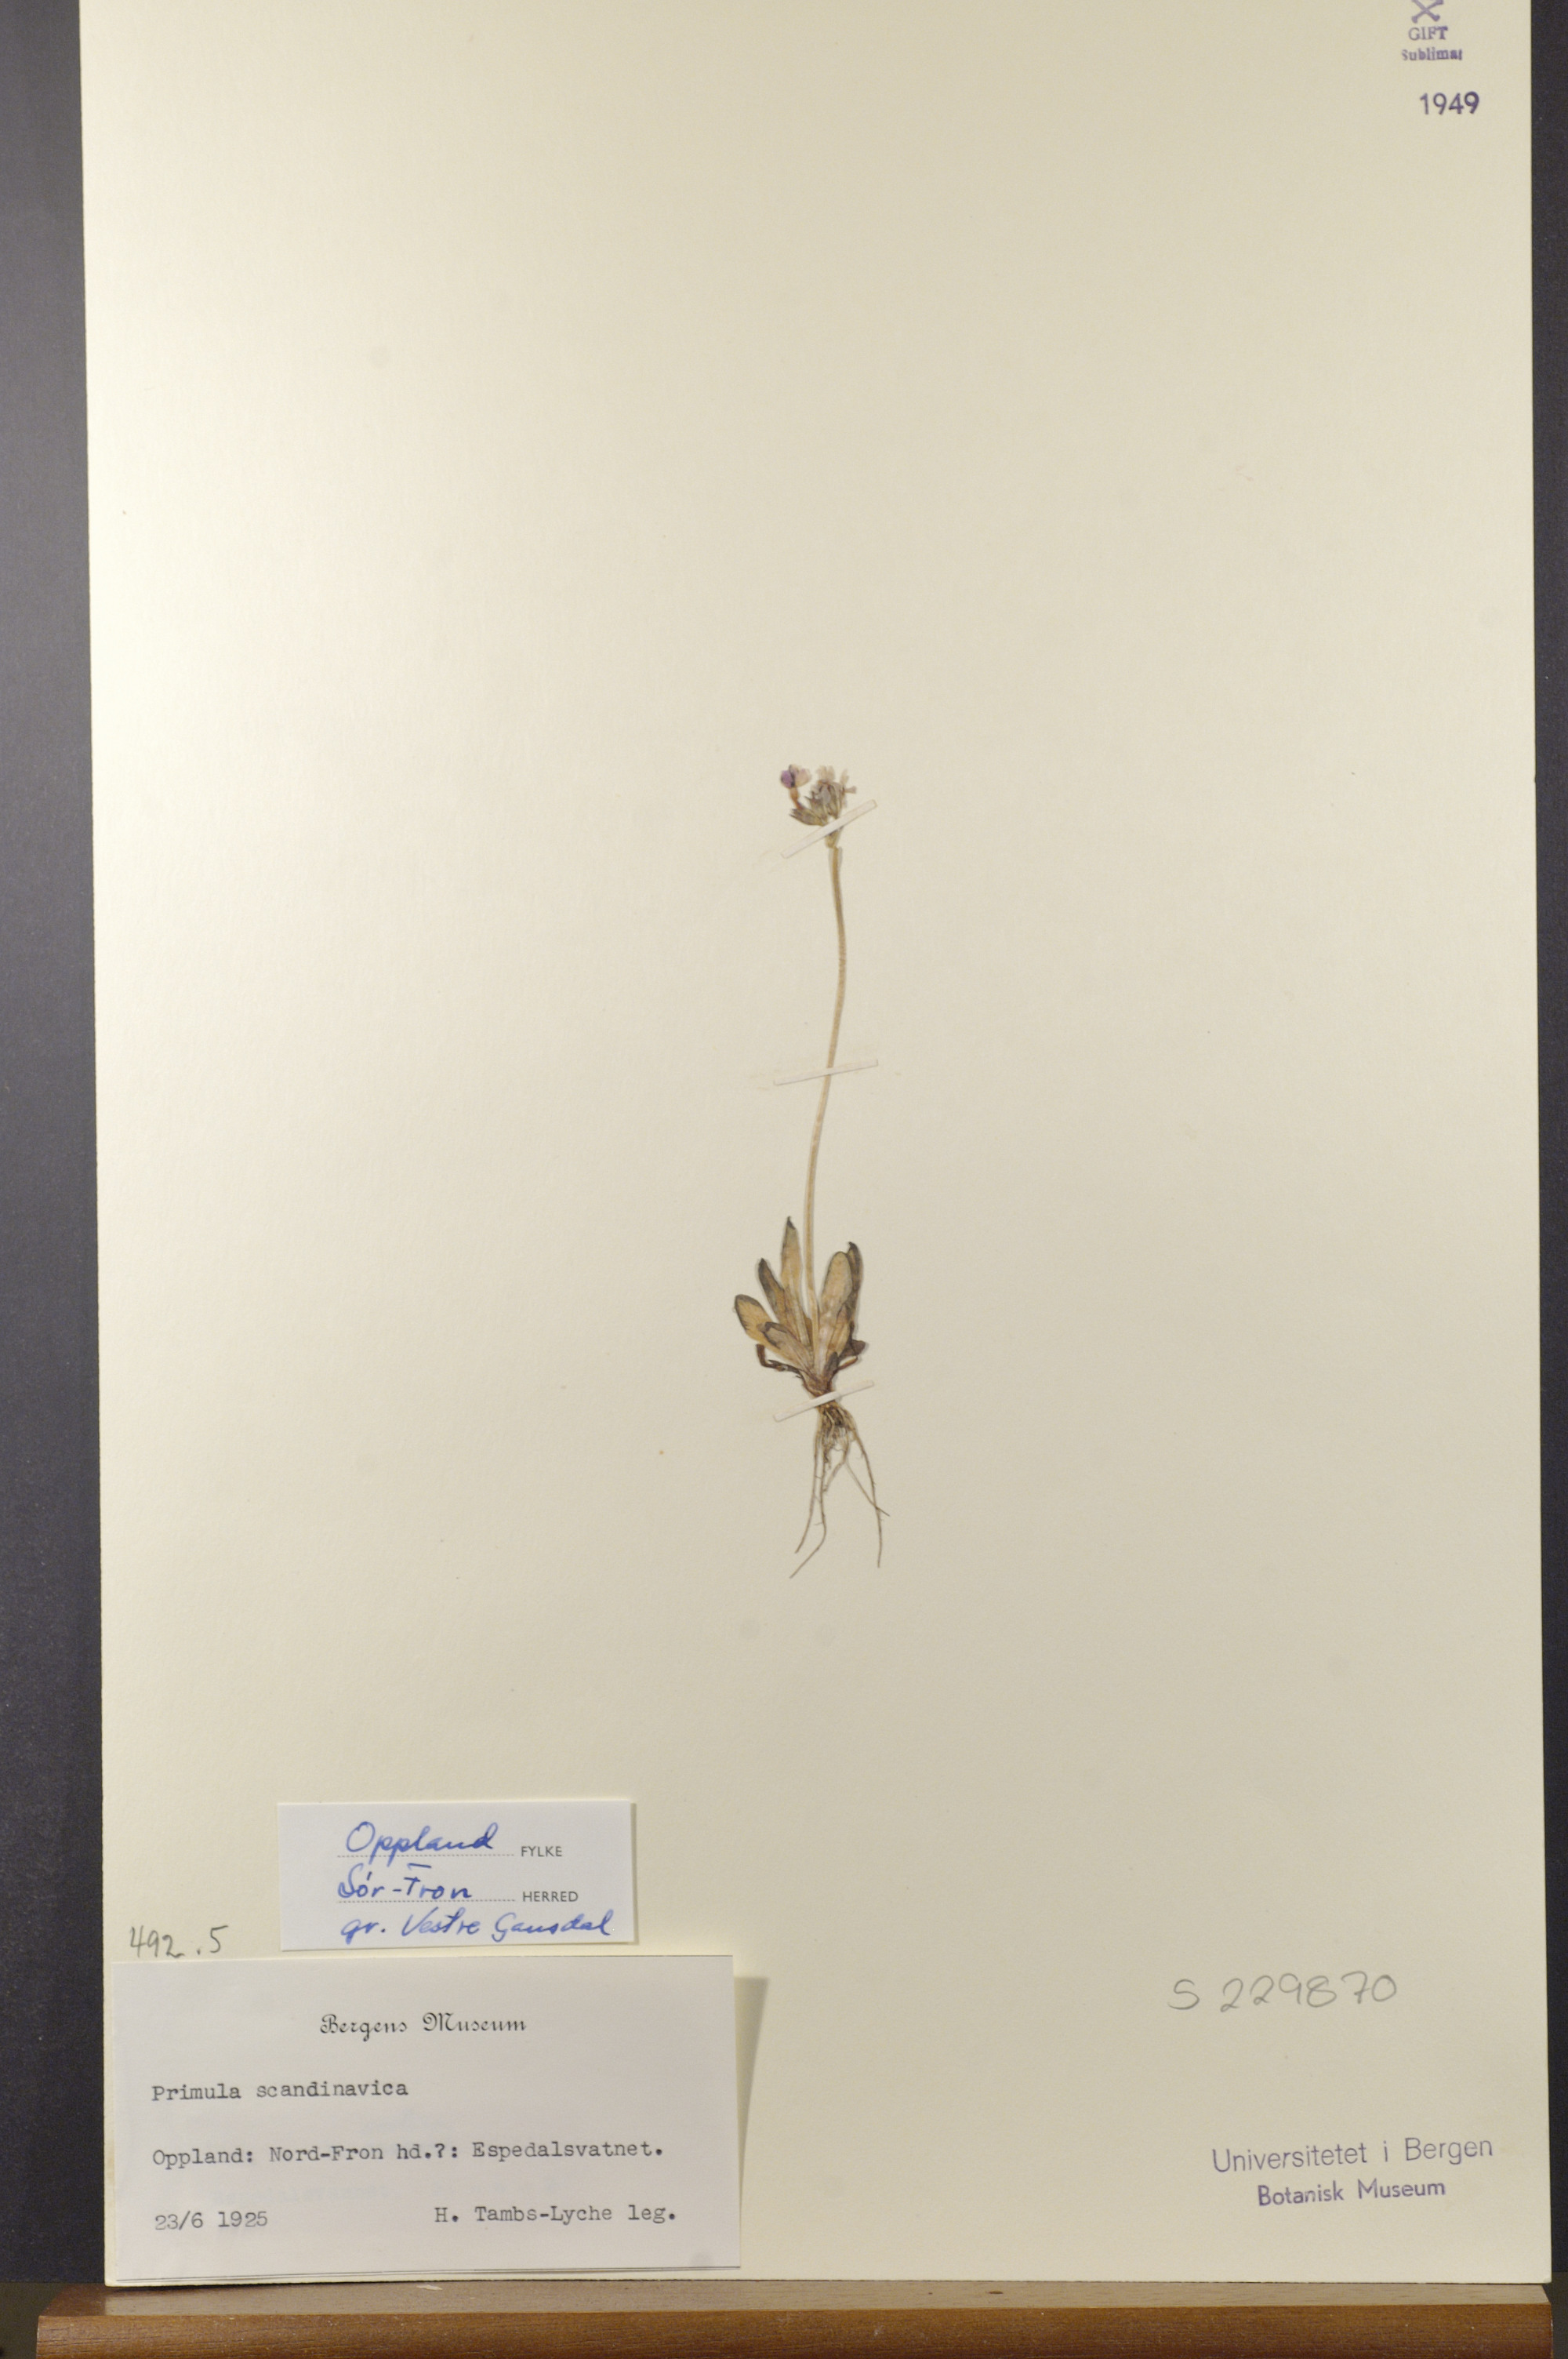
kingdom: Plantae
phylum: Tracheophyta
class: Magnoliopsida
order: Ericales
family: Primulaceae
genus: Primula
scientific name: Primula scandinavica
